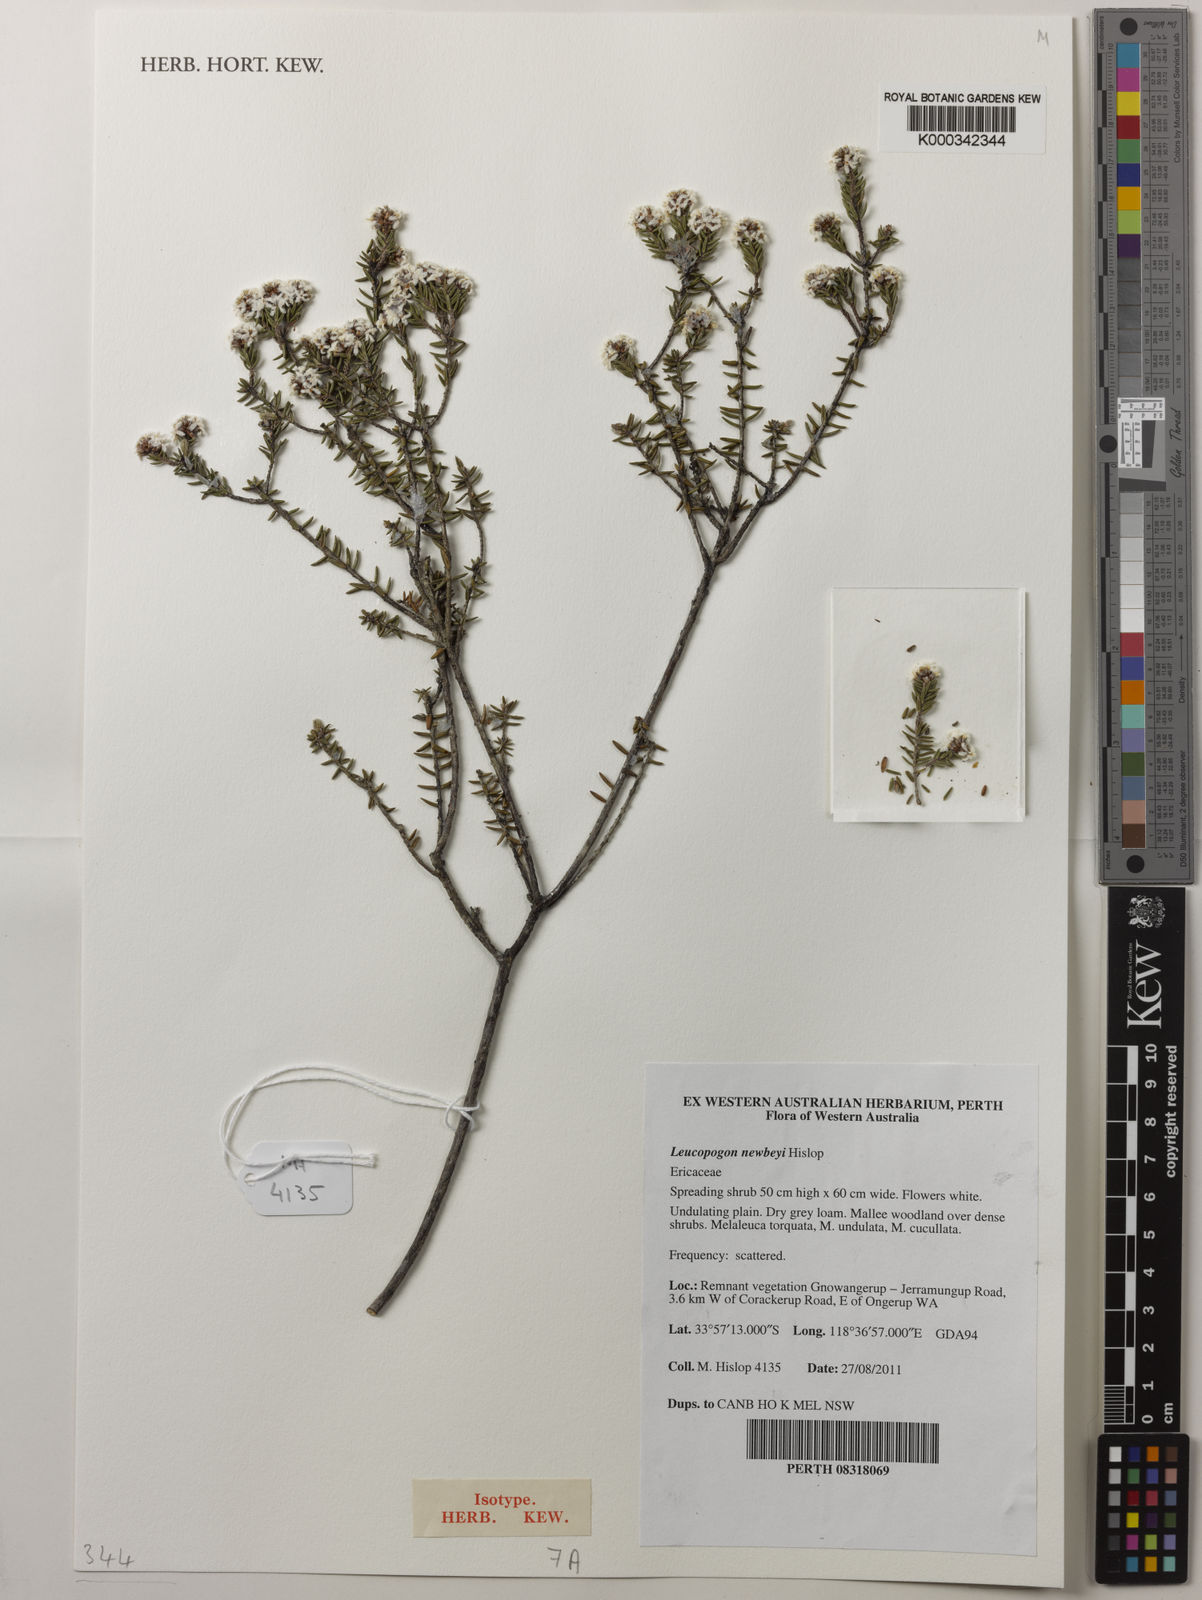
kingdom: Plantae
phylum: Tracheophyta
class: Magnoliopsida
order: Ericales
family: Ericaceae
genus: Leucopogon
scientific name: Leucopogon newbeyi
